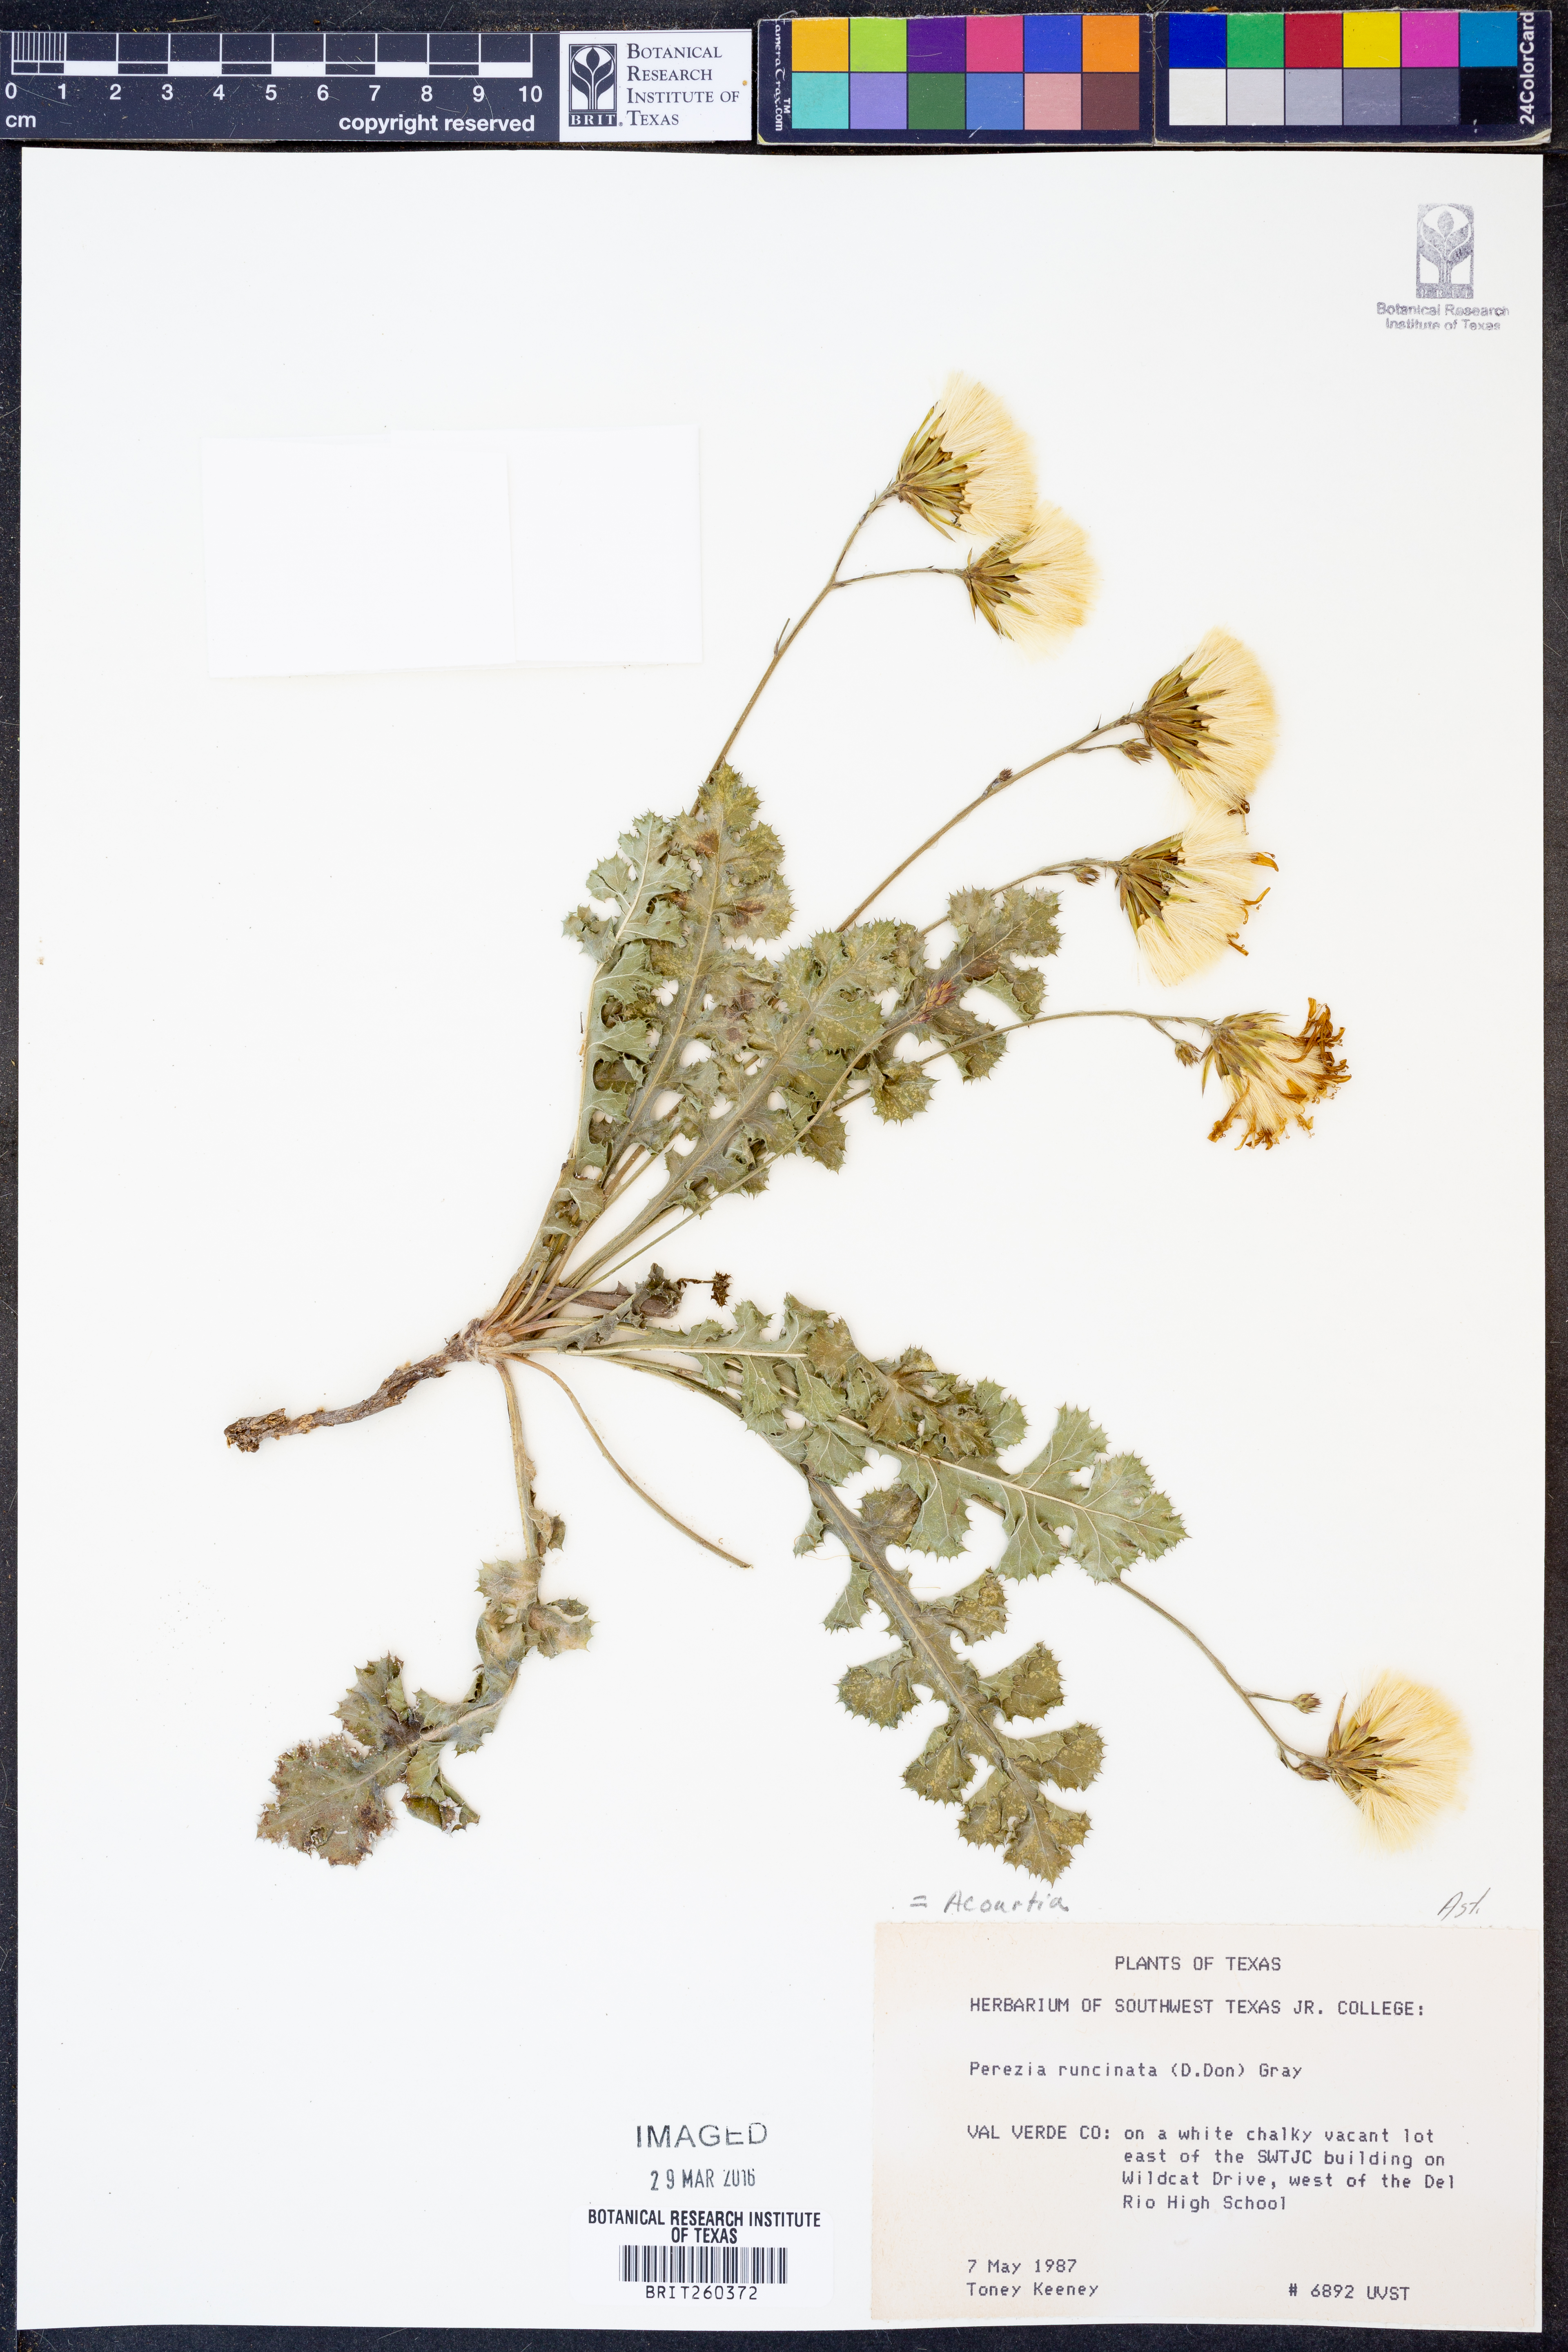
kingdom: Plantae
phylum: Tracheophyta
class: Magnoliopsida
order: Asterales
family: Asteraceae
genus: Acourtia
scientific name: Acourtia runcinata
